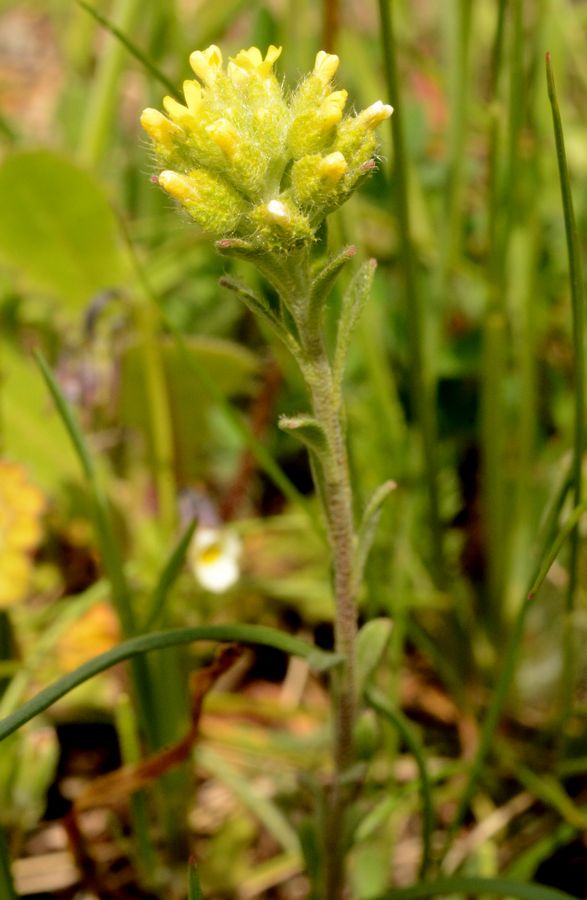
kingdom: Plantae
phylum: Tracheophyta
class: Magnoliopsida
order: Brassicales
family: Brassicaceae
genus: Alyssum
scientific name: Alyssum
